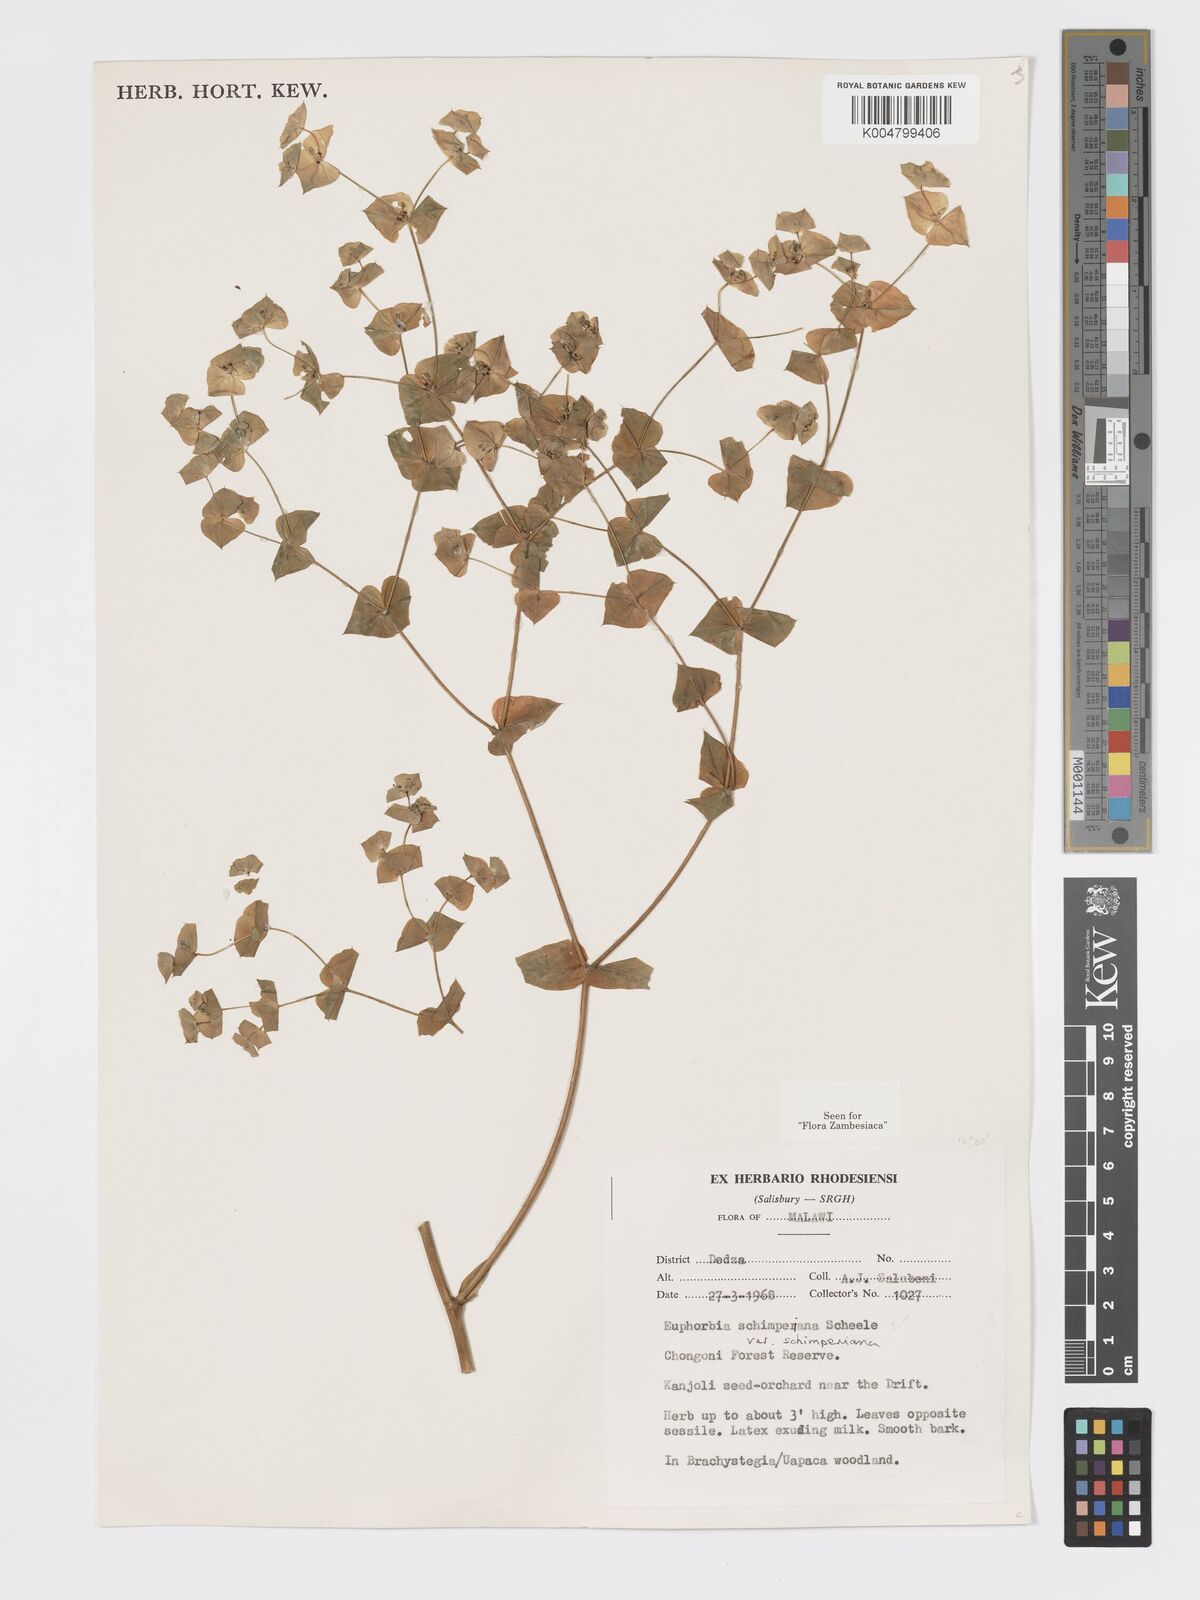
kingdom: Plantae
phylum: Tracheophyta
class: Magnoliopsida
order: Malpighiales
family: Euphorbiaceae
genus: Euphorbia
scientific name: Euphorbia schimperiana
